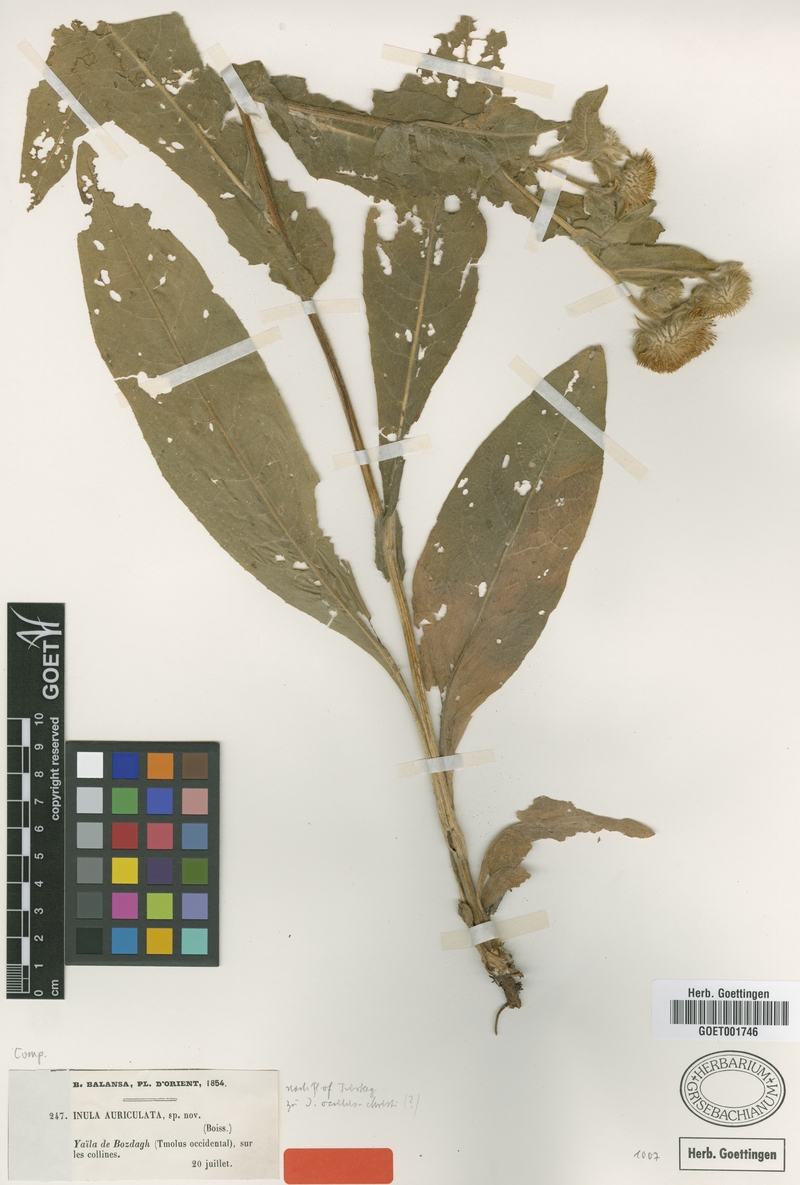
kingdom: Plantae
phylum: Tracheophyta
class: Magnoliopsida
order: Asterales
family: Asteraceae
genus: Pentanema
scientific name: Pentanema auriculatum
